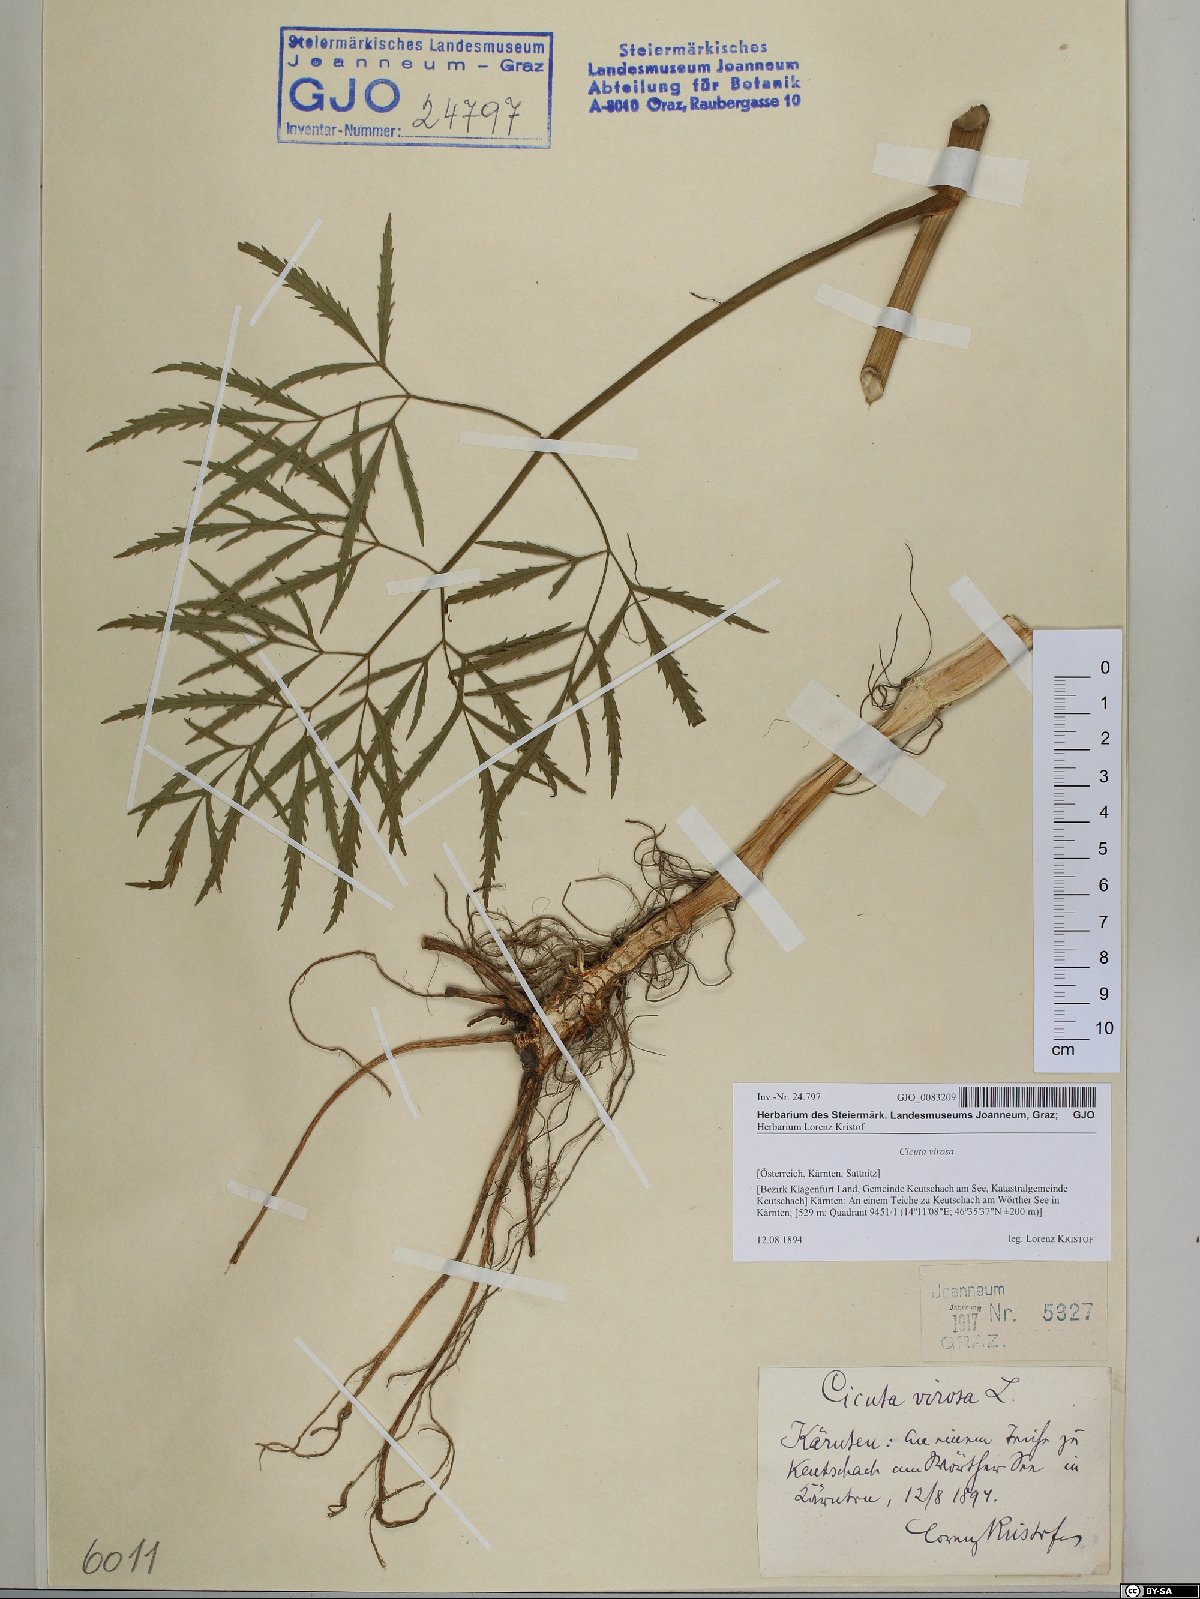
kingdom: Plantae
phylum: Tracheophyta
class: Magnoliopsida
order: Apiales
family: Apiaceae
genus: Cicuta
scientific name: Cicuta virosa
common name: Cowbane
